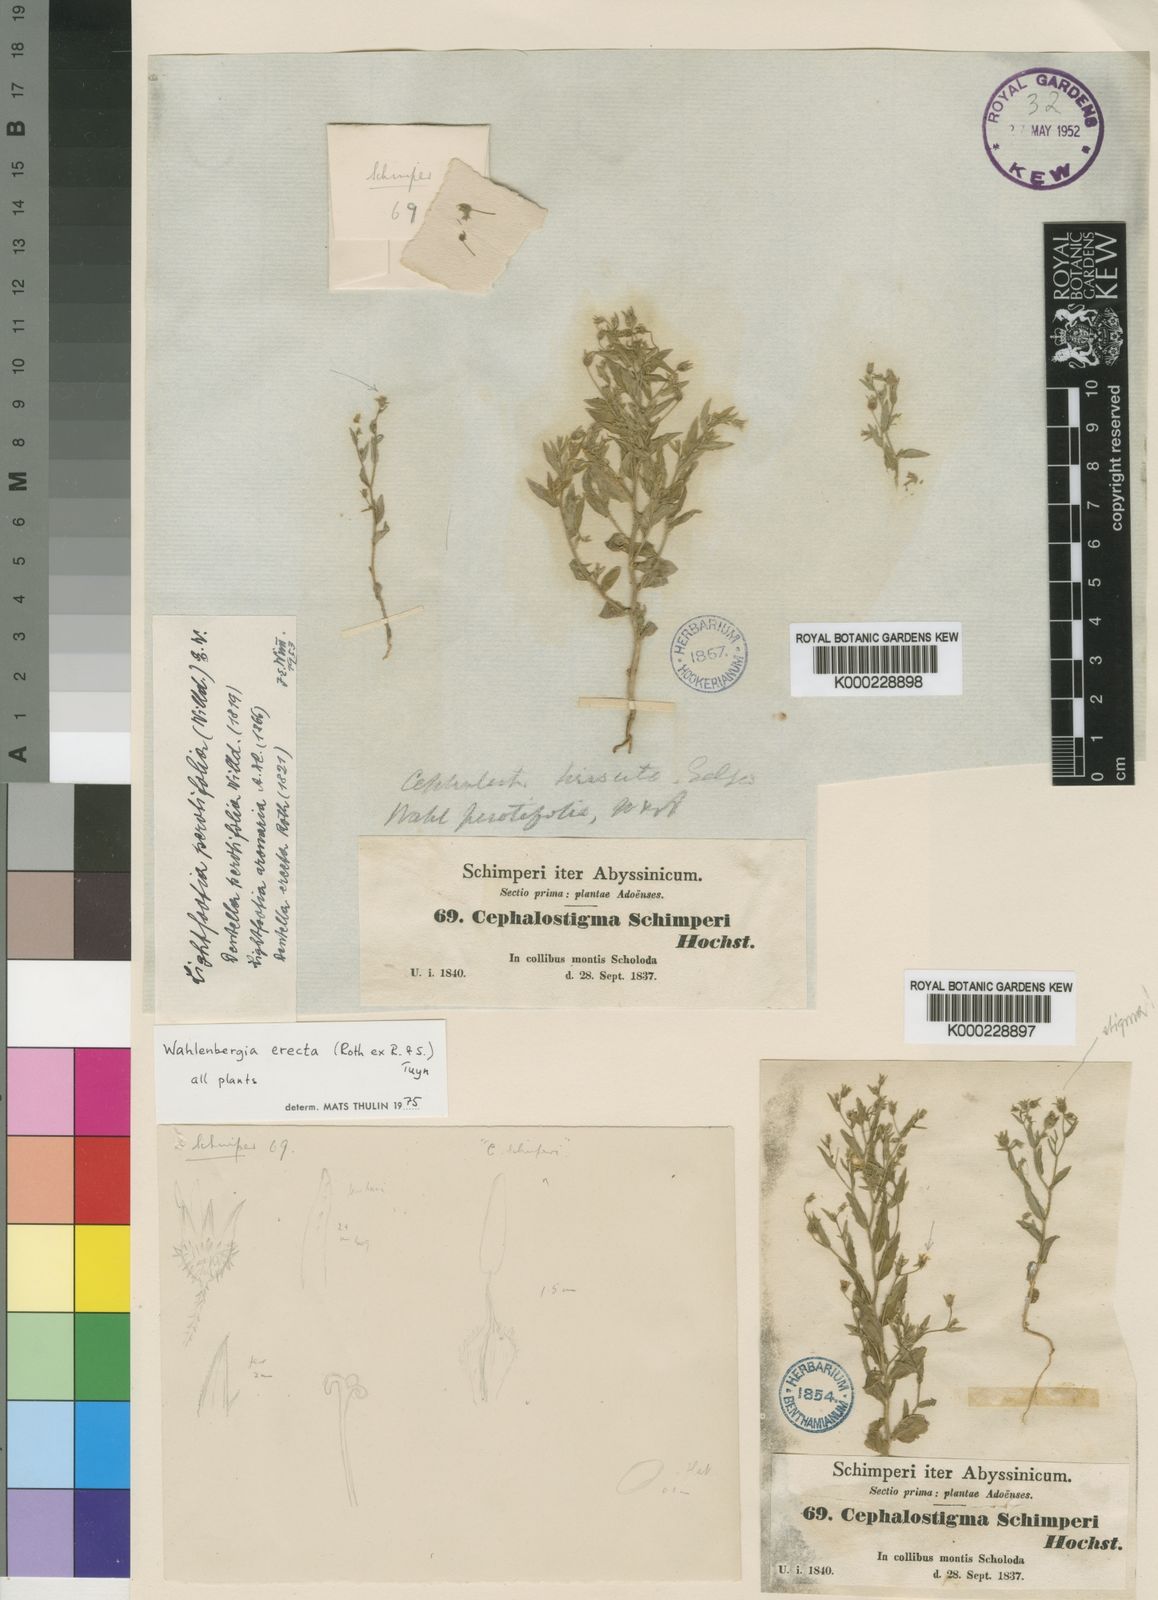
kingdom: Plantae
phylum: Tracheophyta
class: Magnoliopsida
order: Asterales
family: Campanulaceae
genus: Wahlenbergia
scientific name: Wahlenbergia erecta
